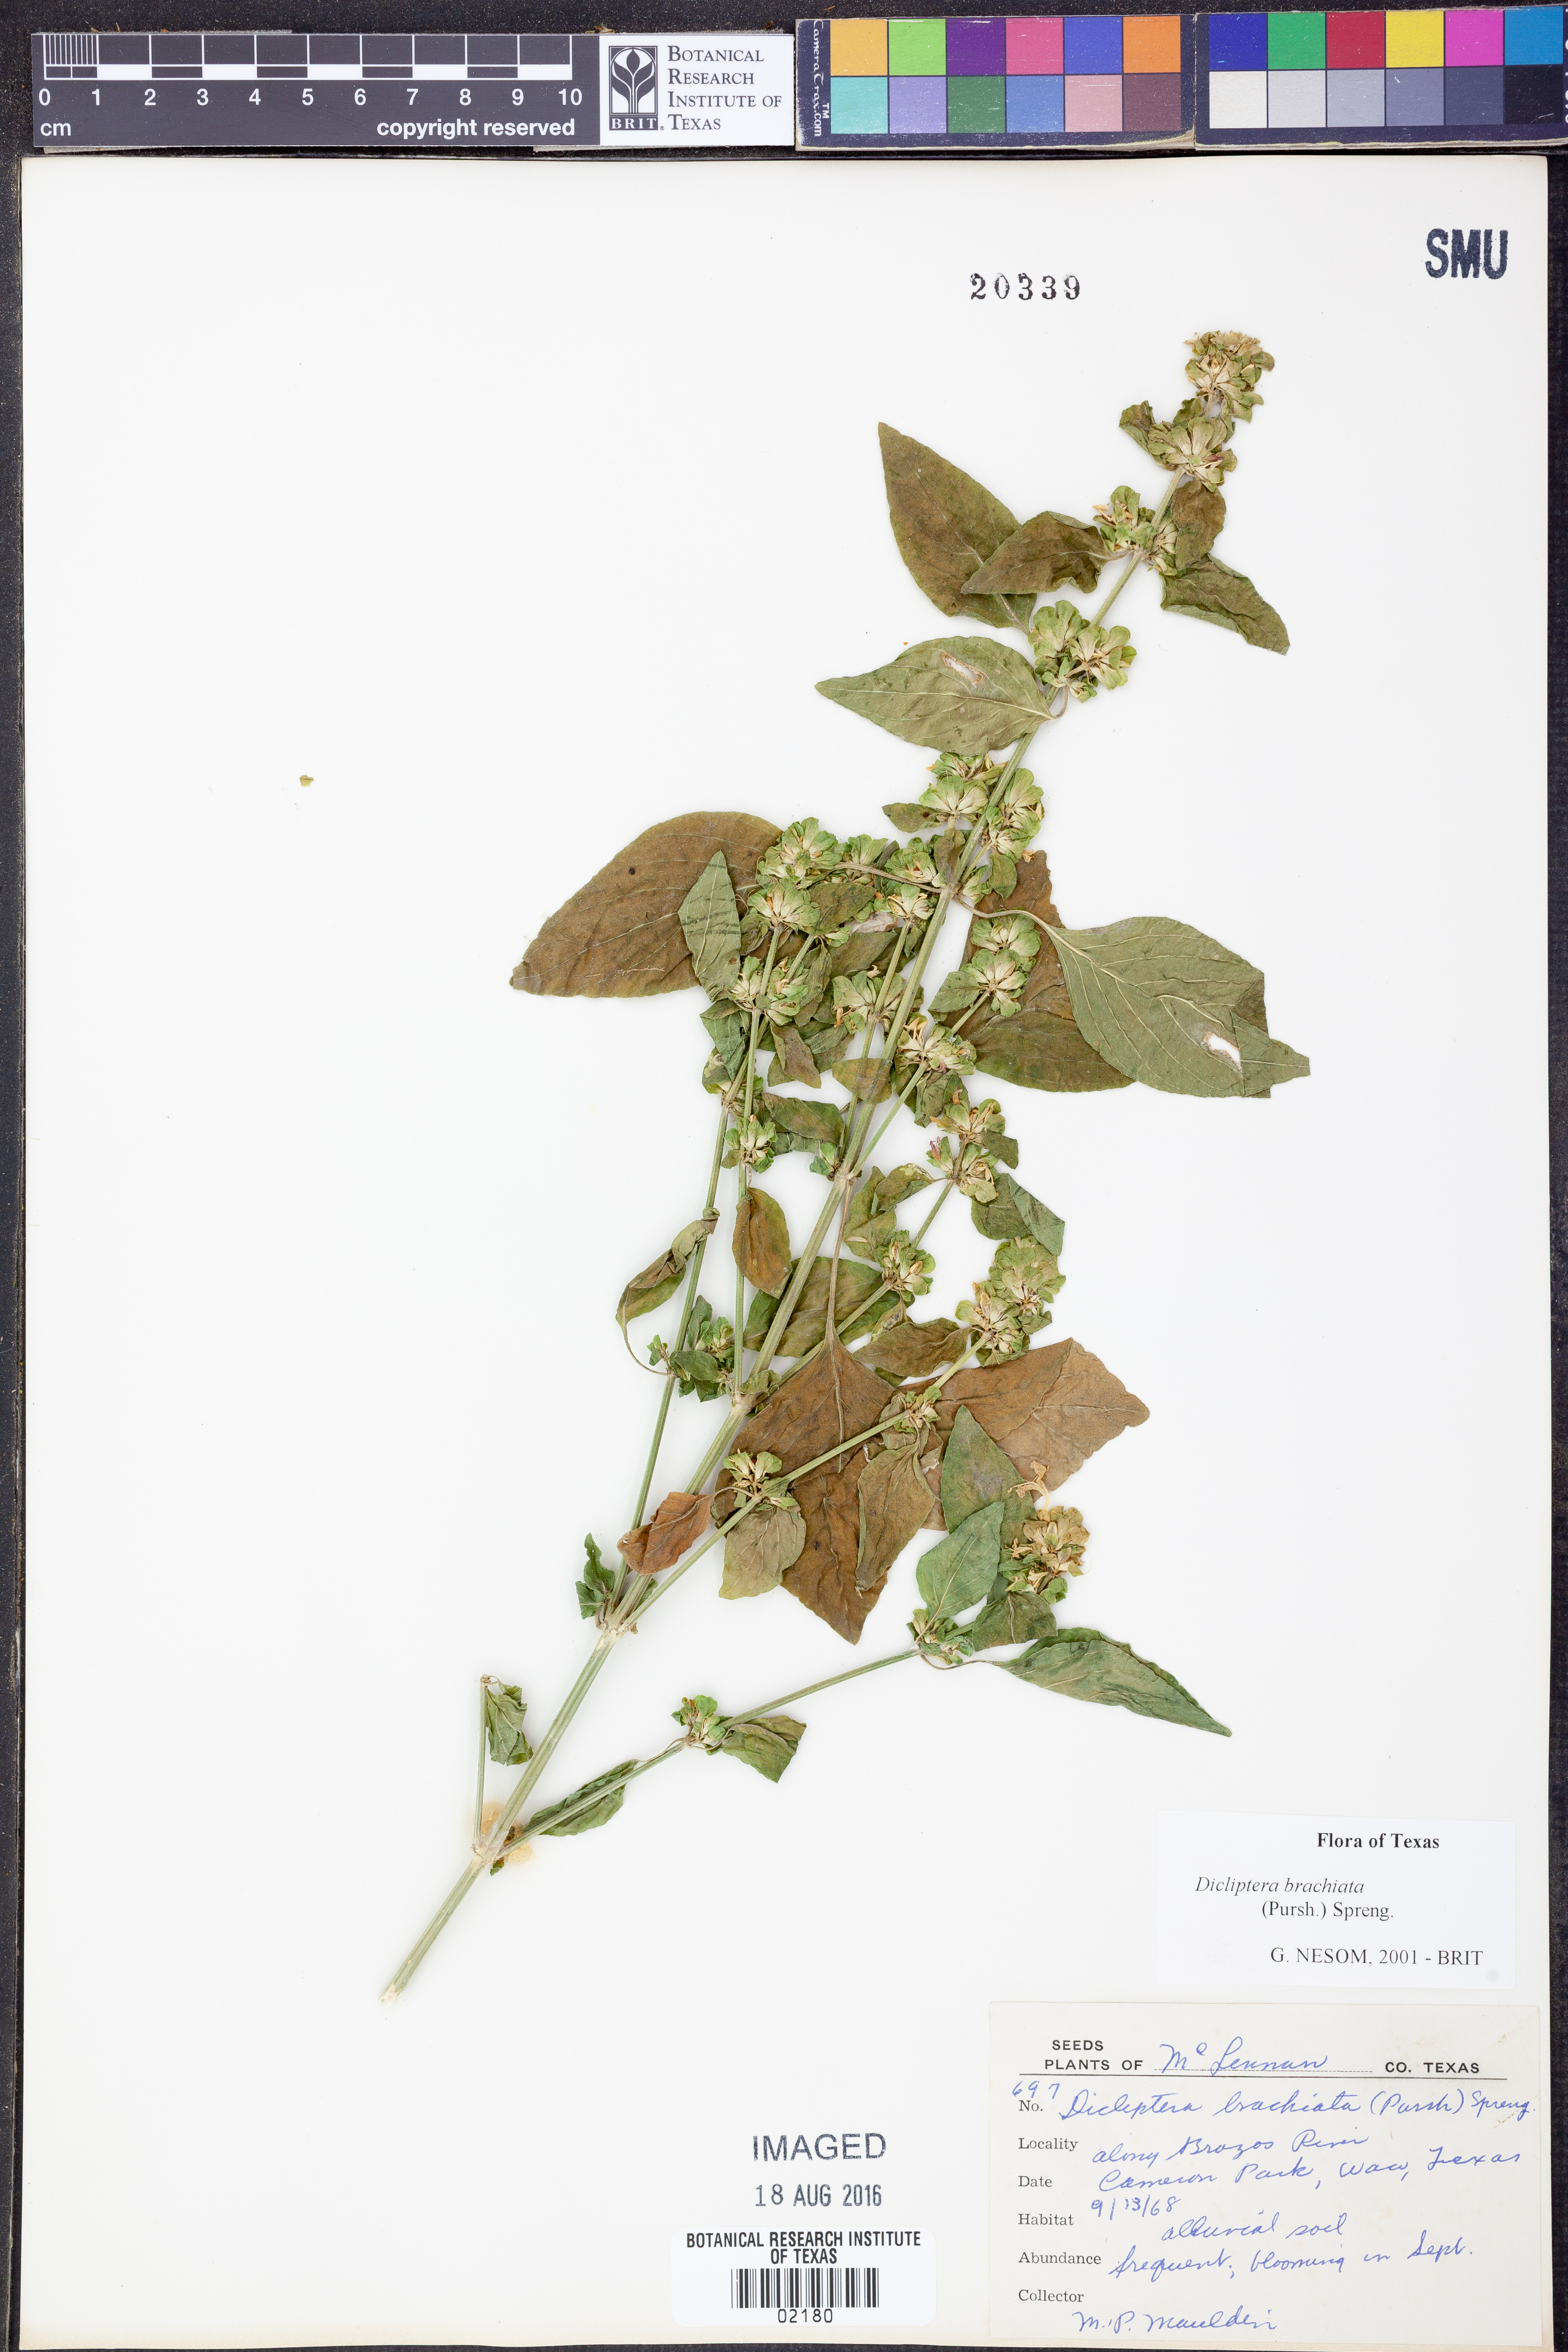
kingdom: Plantae
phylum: Tracheophyta
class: Magnoliopsida
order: Lamiales
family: Acanthaceae
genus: Dicliptera
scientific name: Dicliptera brachiata
